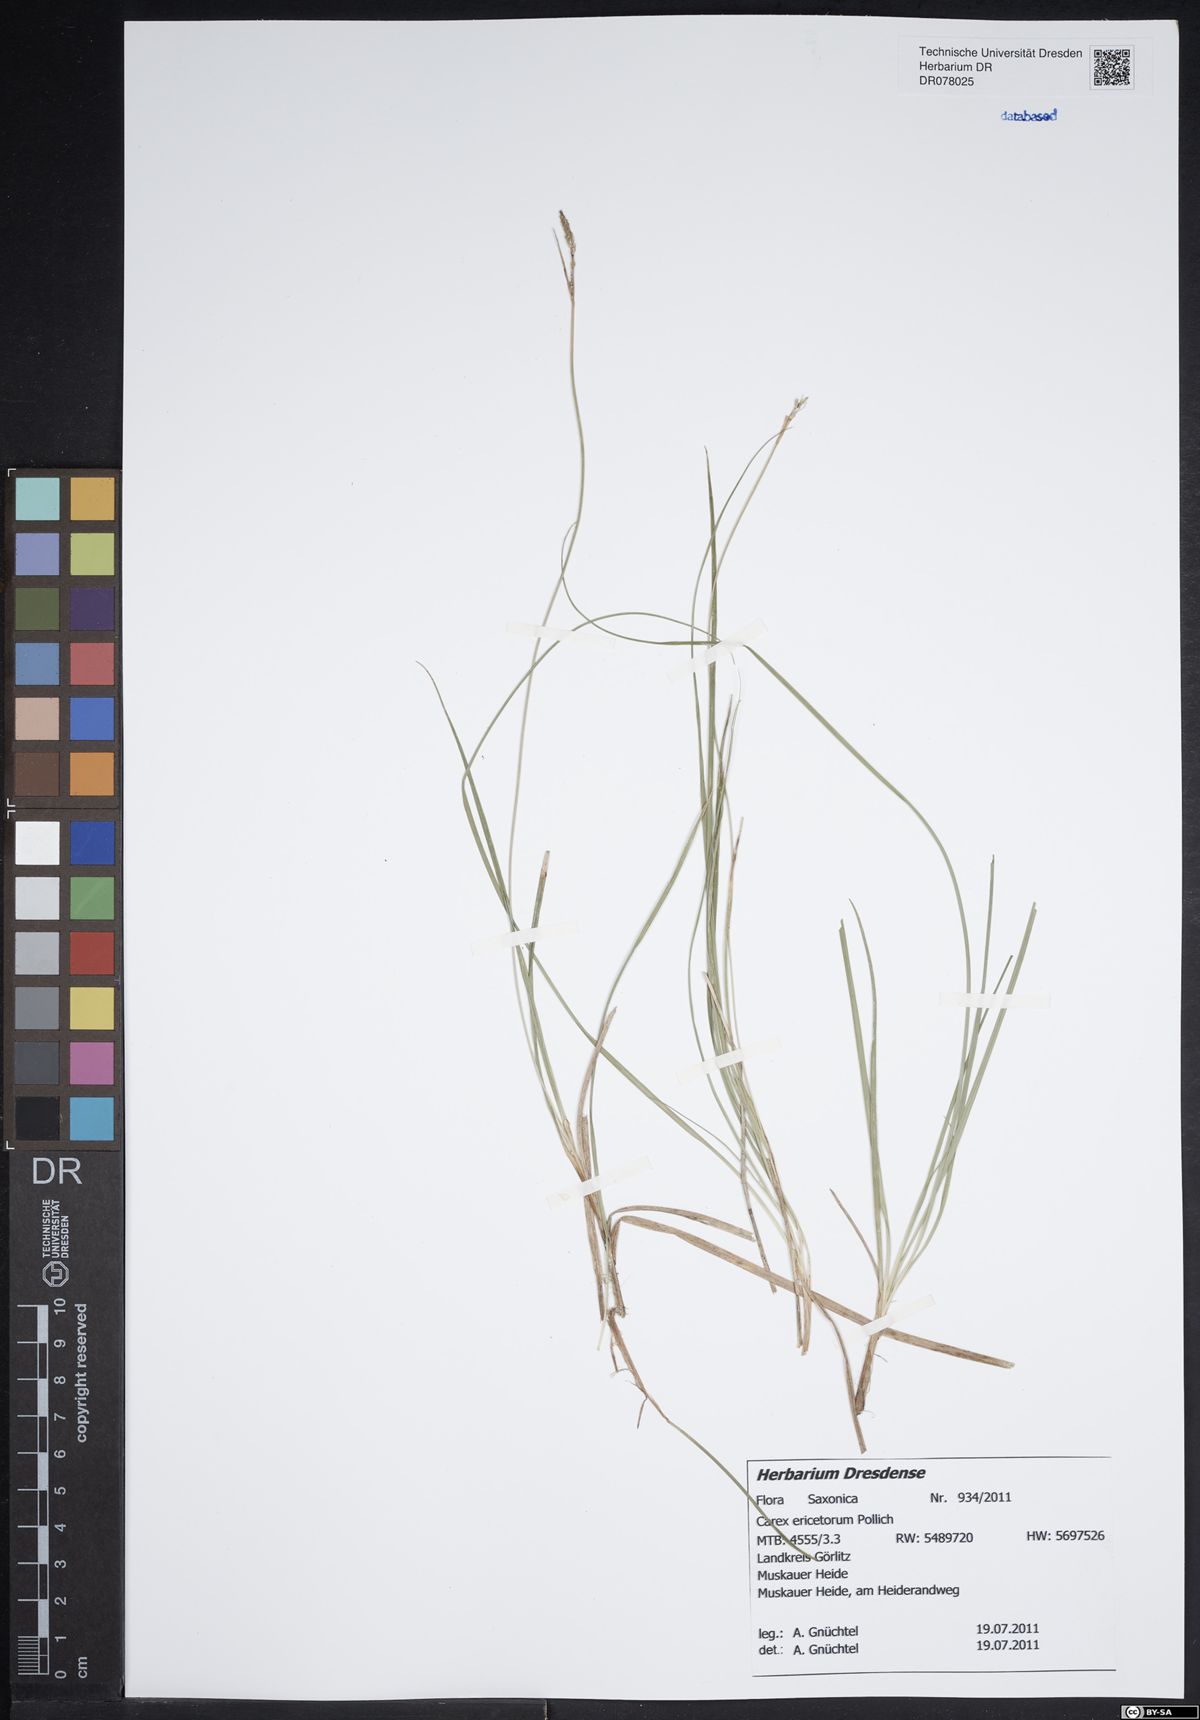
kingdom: Plantae
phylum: Tracheophyta
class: Liliopsida
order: Poales
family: Cyperaceae
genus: Carex
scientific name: Carex ericetorum
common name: Rare spring-sedge
